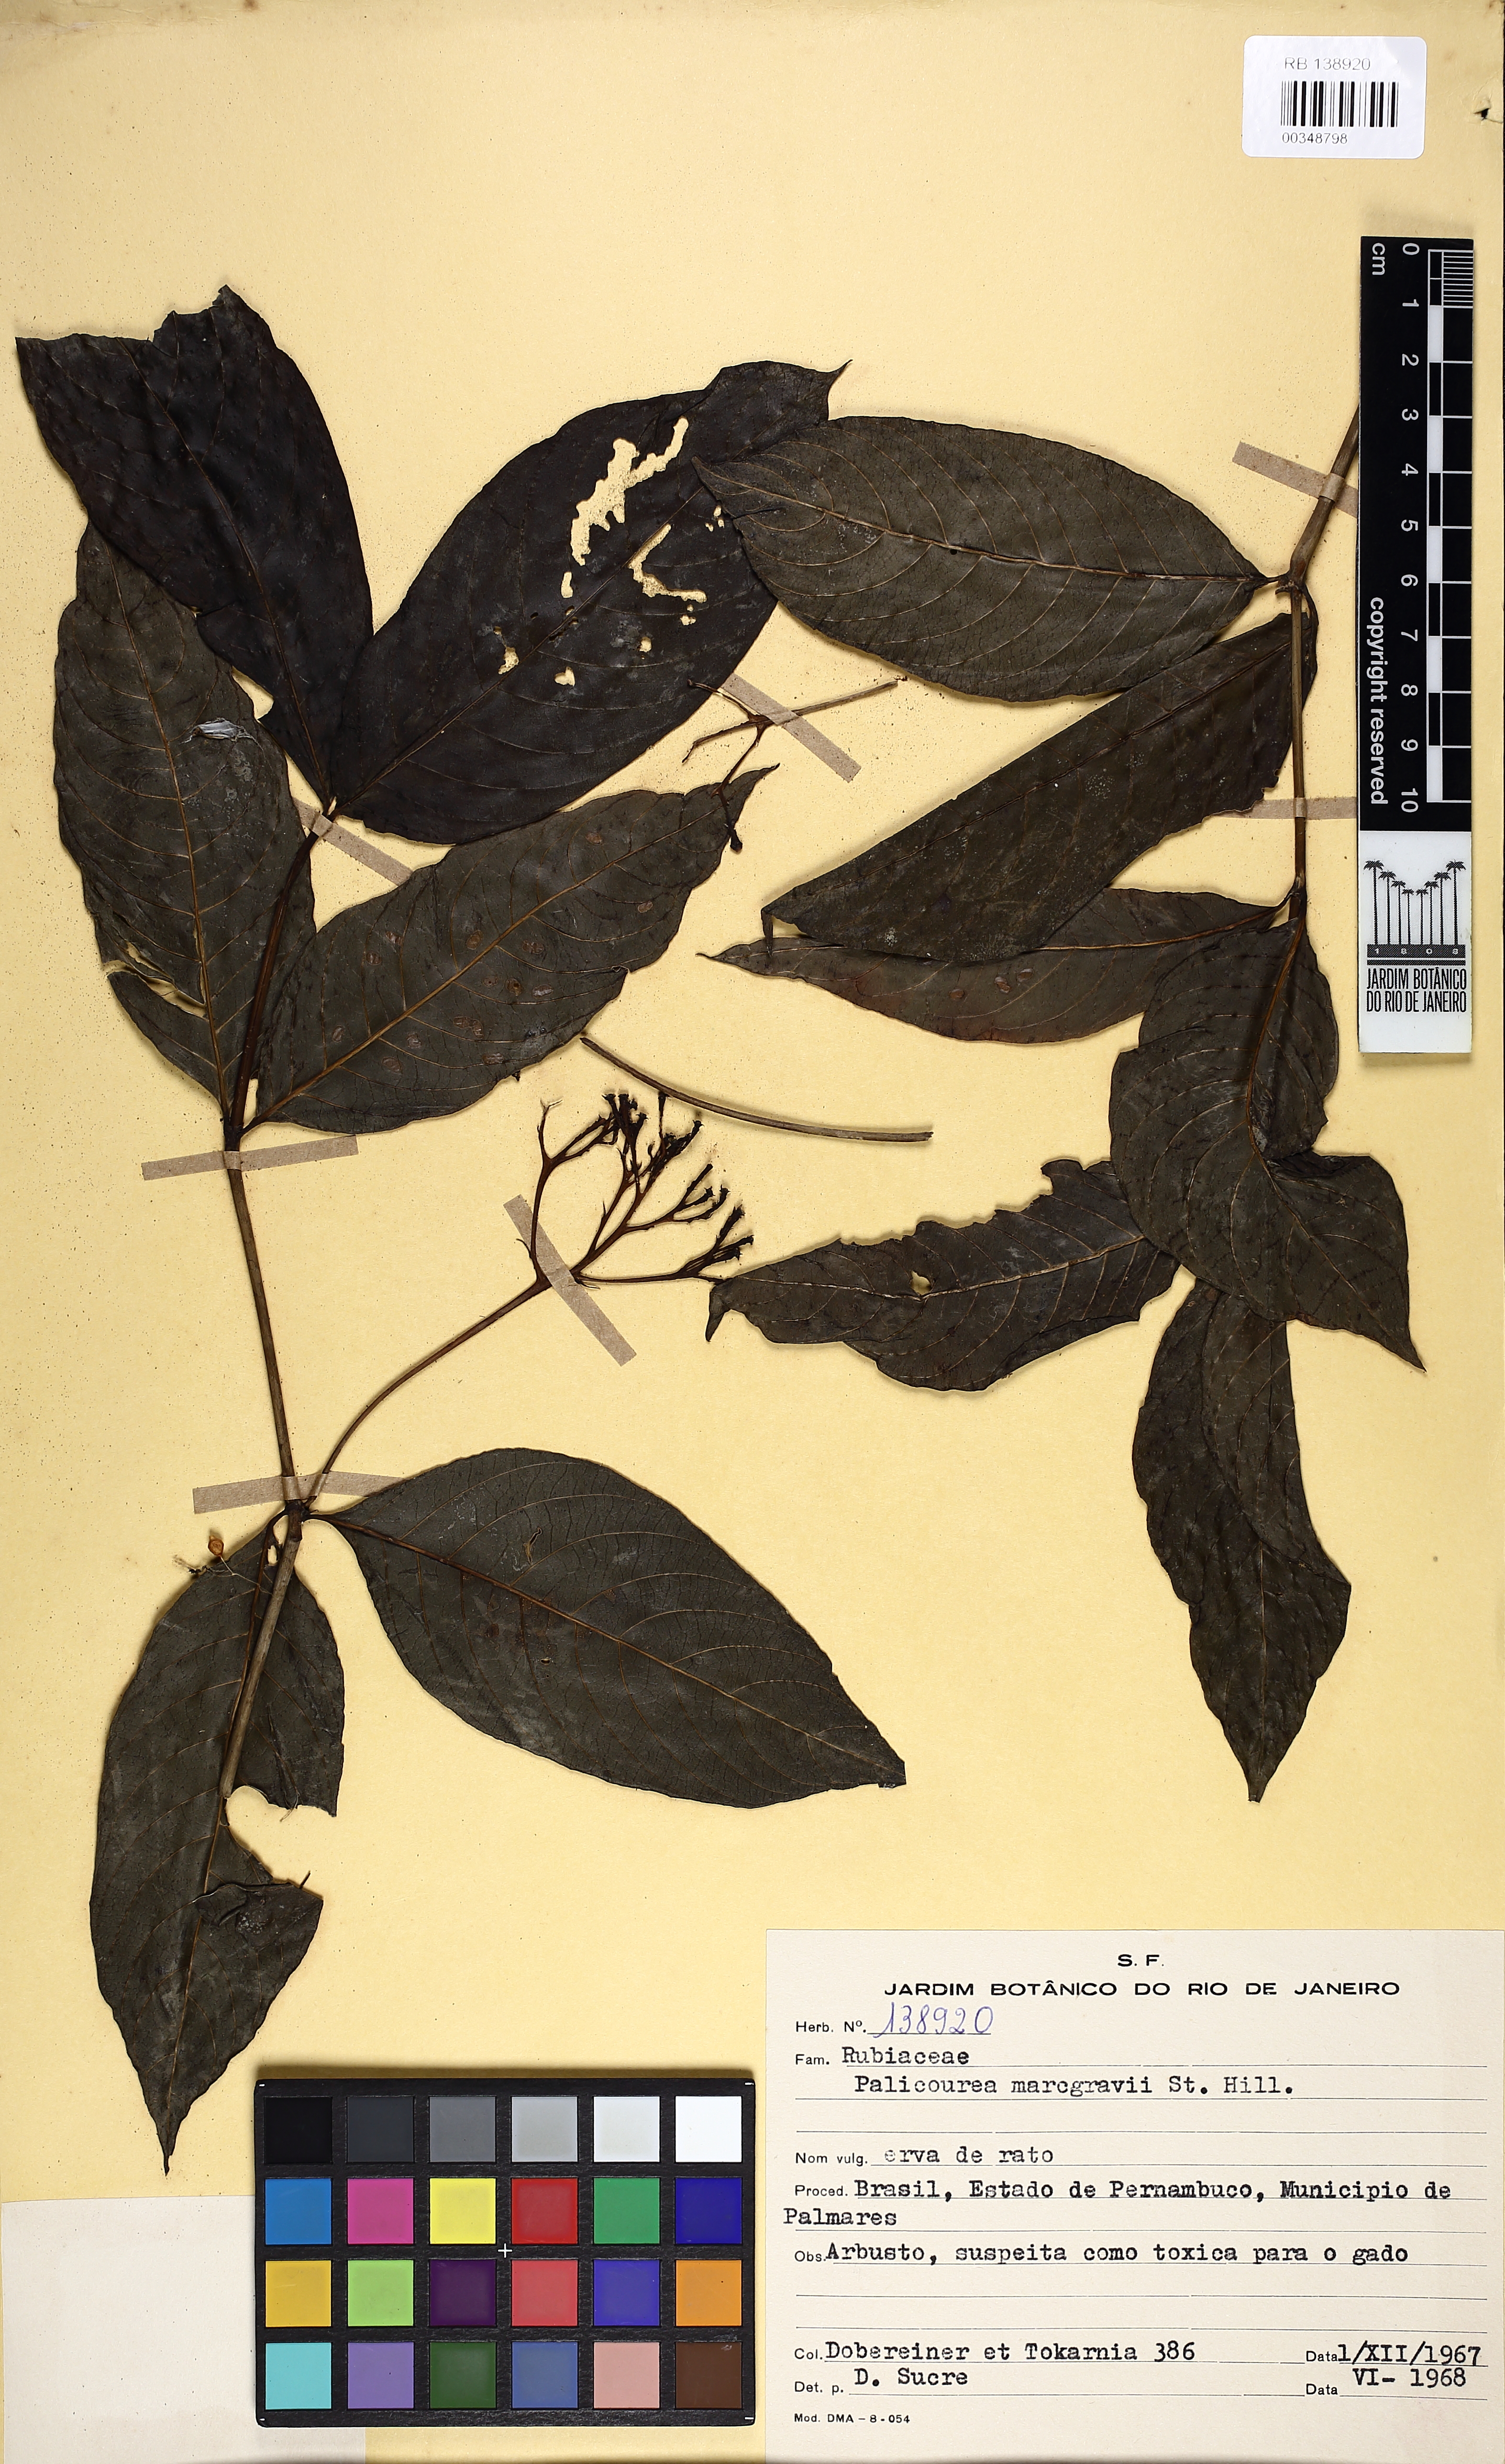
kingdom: Plantae
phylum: Tracheophyta
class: Magnoliopsida
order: Gentianales
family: Rubiaceae
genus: Palicourea
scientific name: Palicourea marcgravii
